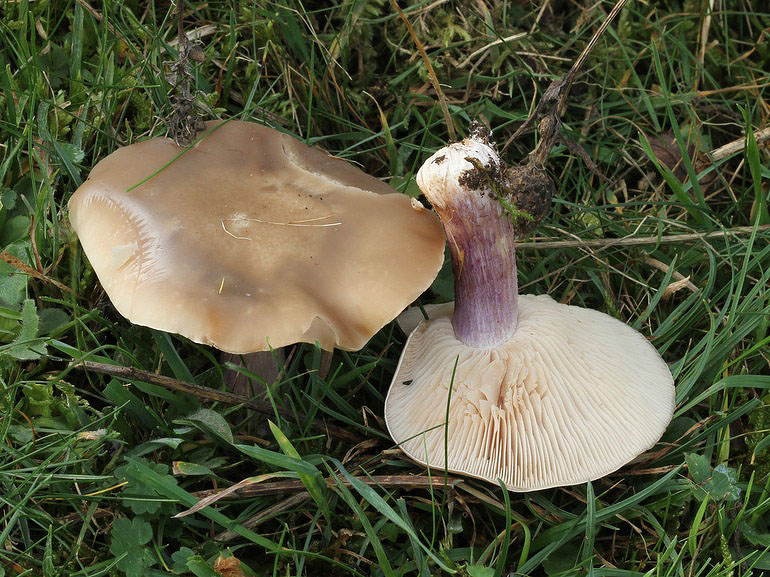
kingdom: Fungi
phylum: Basidiomycota
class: Agaricomycetes
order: Agaricales
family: Tricholomataceae
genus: Lepista
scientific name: Lepista personata
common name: bleg hekseringshat
